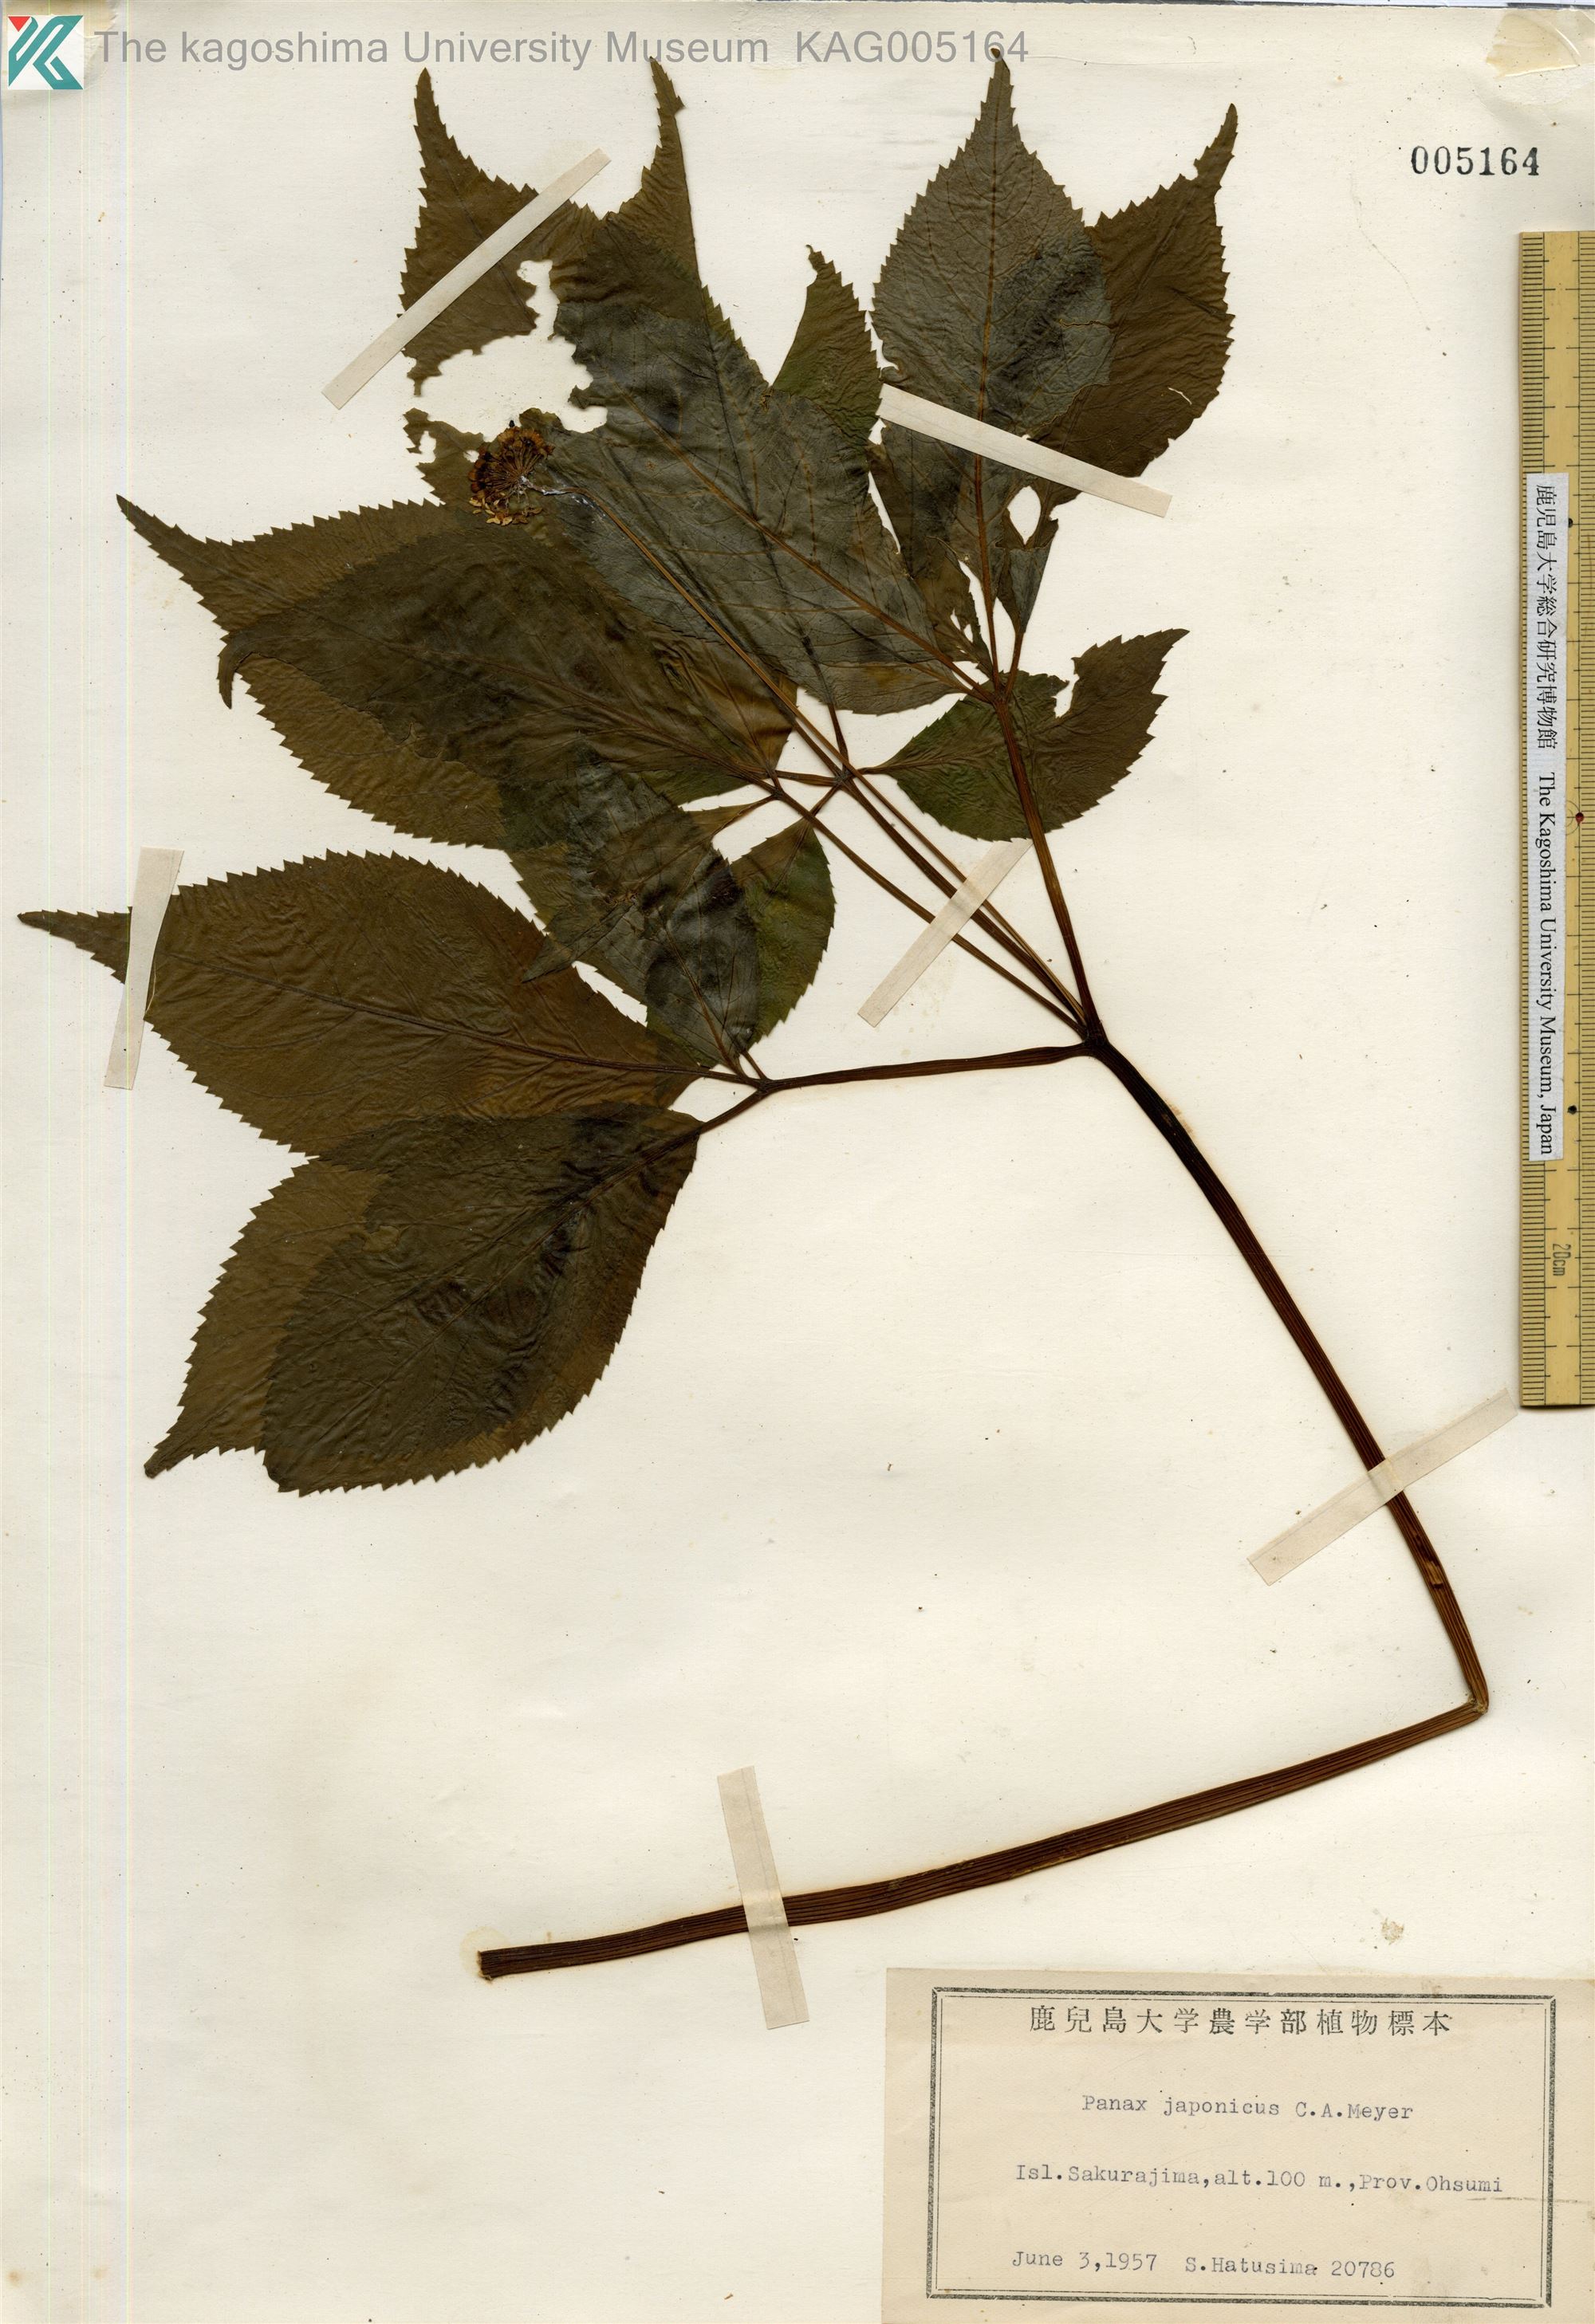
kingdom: Plantae
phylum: Tracheophyta
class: Magnoliopsida
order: Apiales
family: Araliaceae
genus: Panax
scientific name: Panax japonicus
